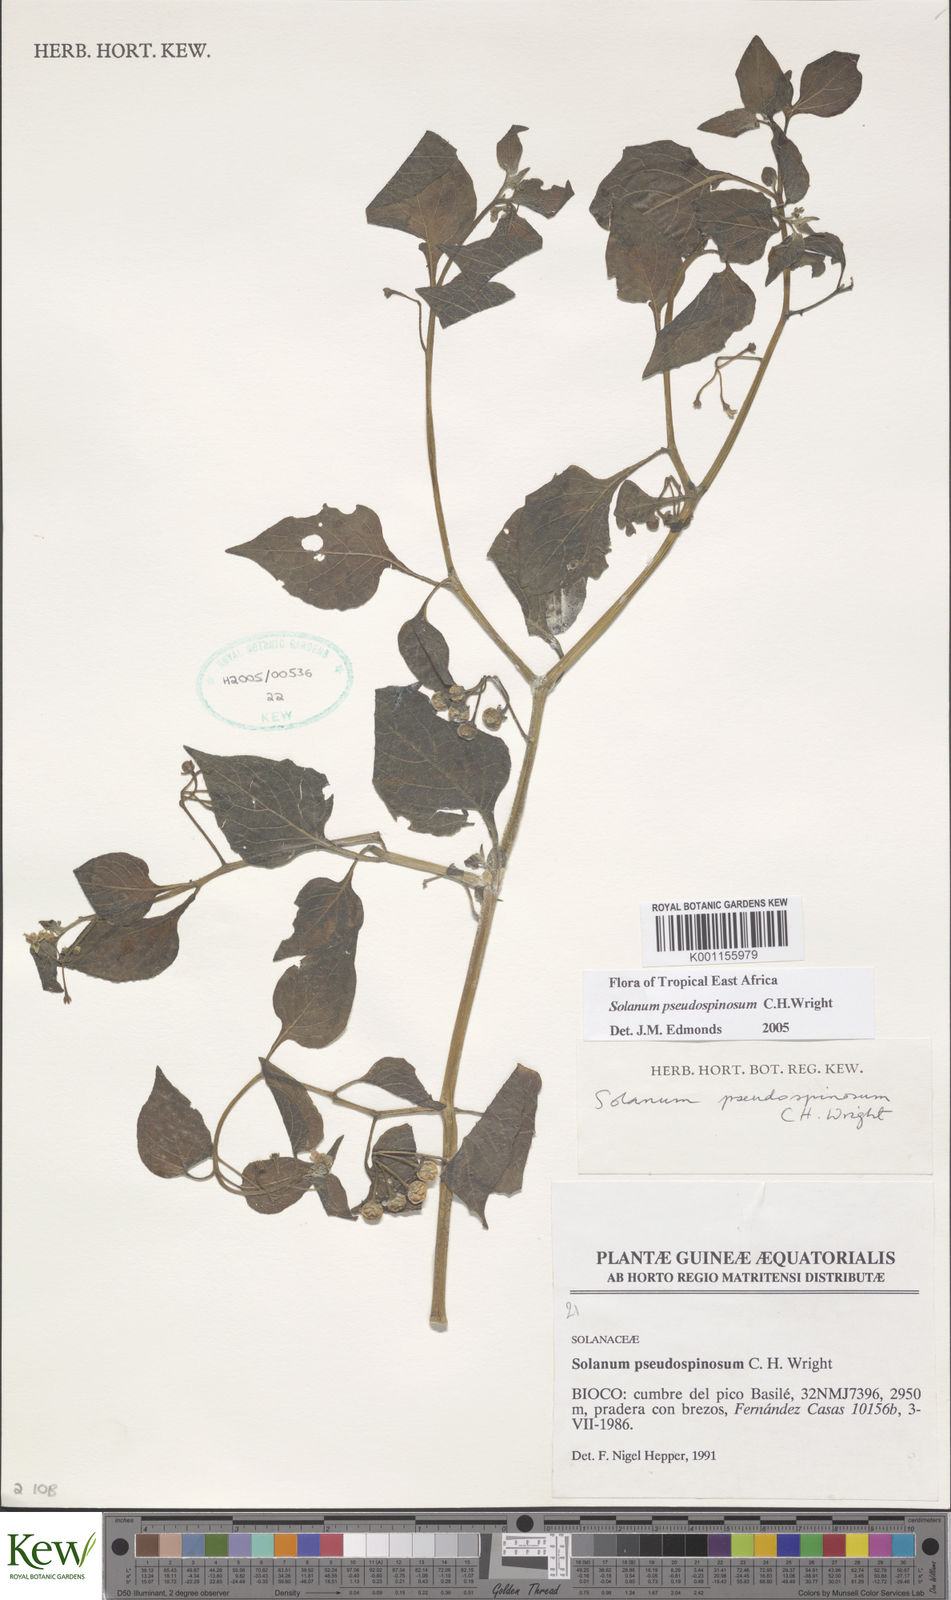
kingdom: Plantae
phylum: Tracheophyta
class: Magnoliopsida
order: Solanales
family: Solanaceae
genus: Solanum
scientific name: Solanum pseudospinosum
